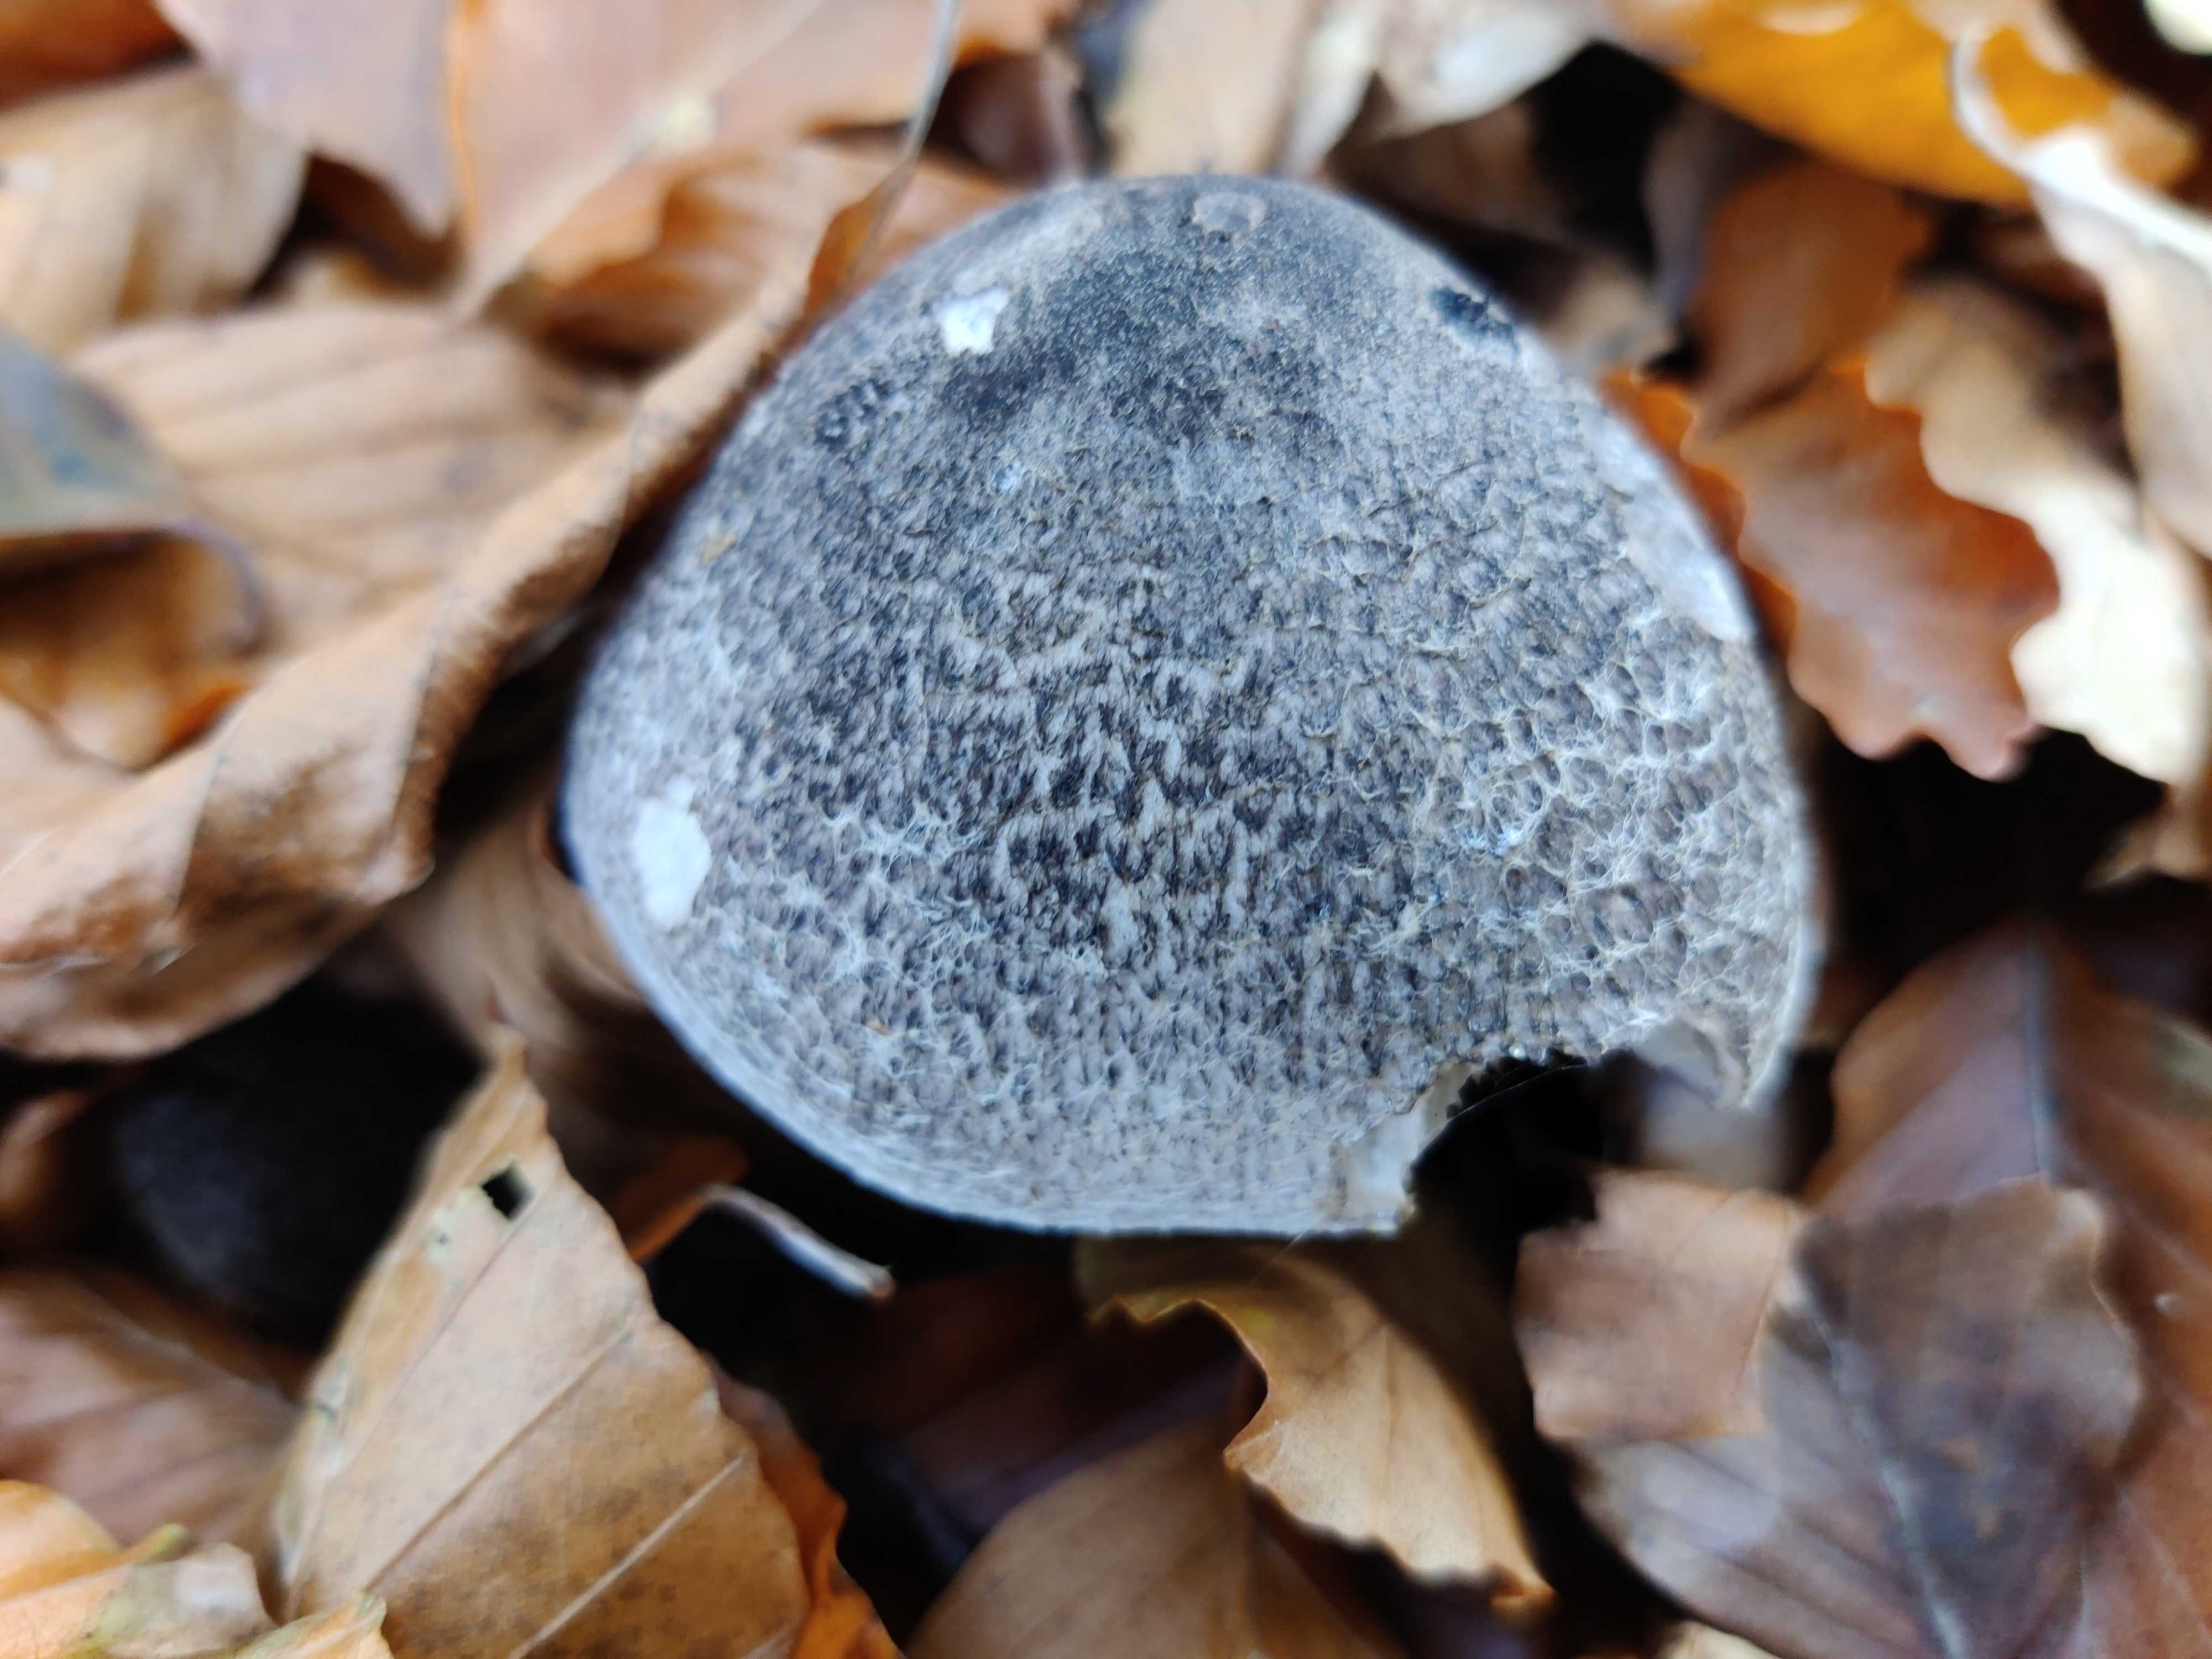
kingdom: Fungi
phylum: Basidiomycota
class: Agaricomycetes
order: Agaricales
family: Tricholomataceae
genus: Tricholoma
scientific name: Tricholoma atrosquamosum
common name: sortskællet ridderhat
